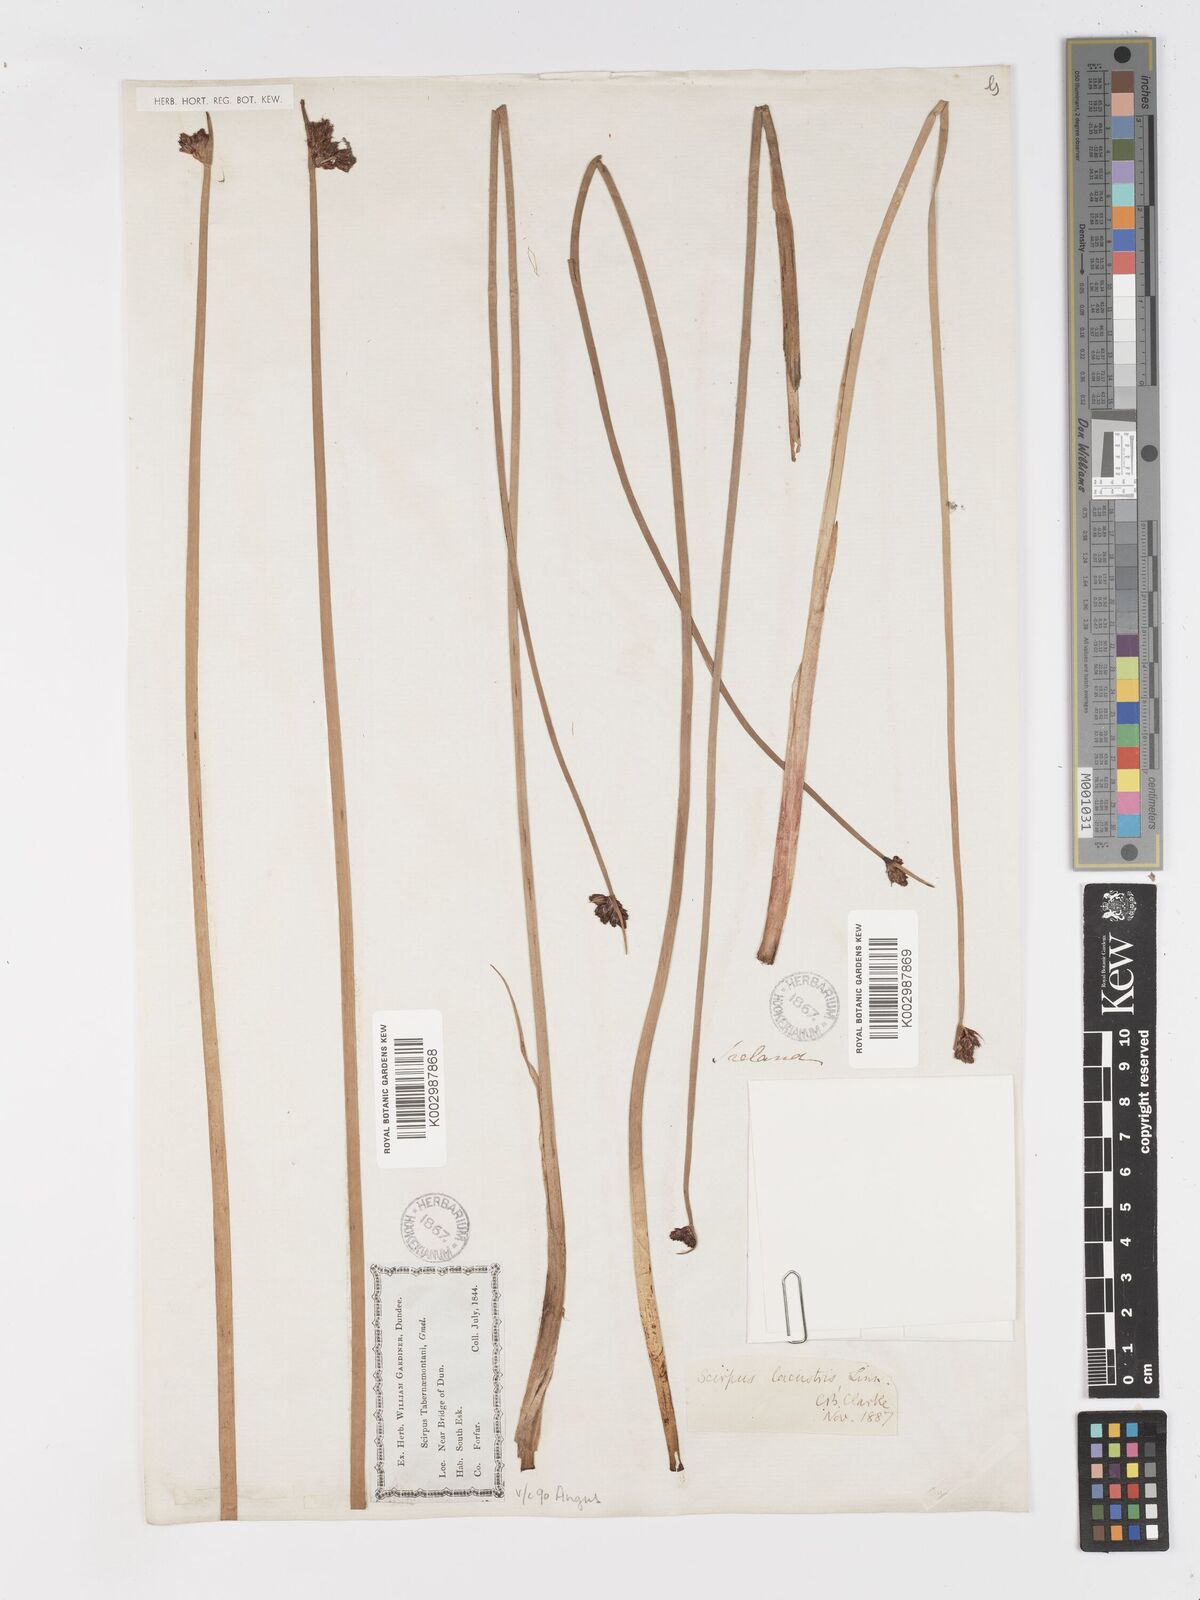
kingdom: Plantae
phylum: Tracheophyta
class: Liliopsida
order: Poales
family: Cyperaceae
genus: Schoenoplectus
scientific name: Schoenoplectus tabernaemontani
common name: Grey club-rush
